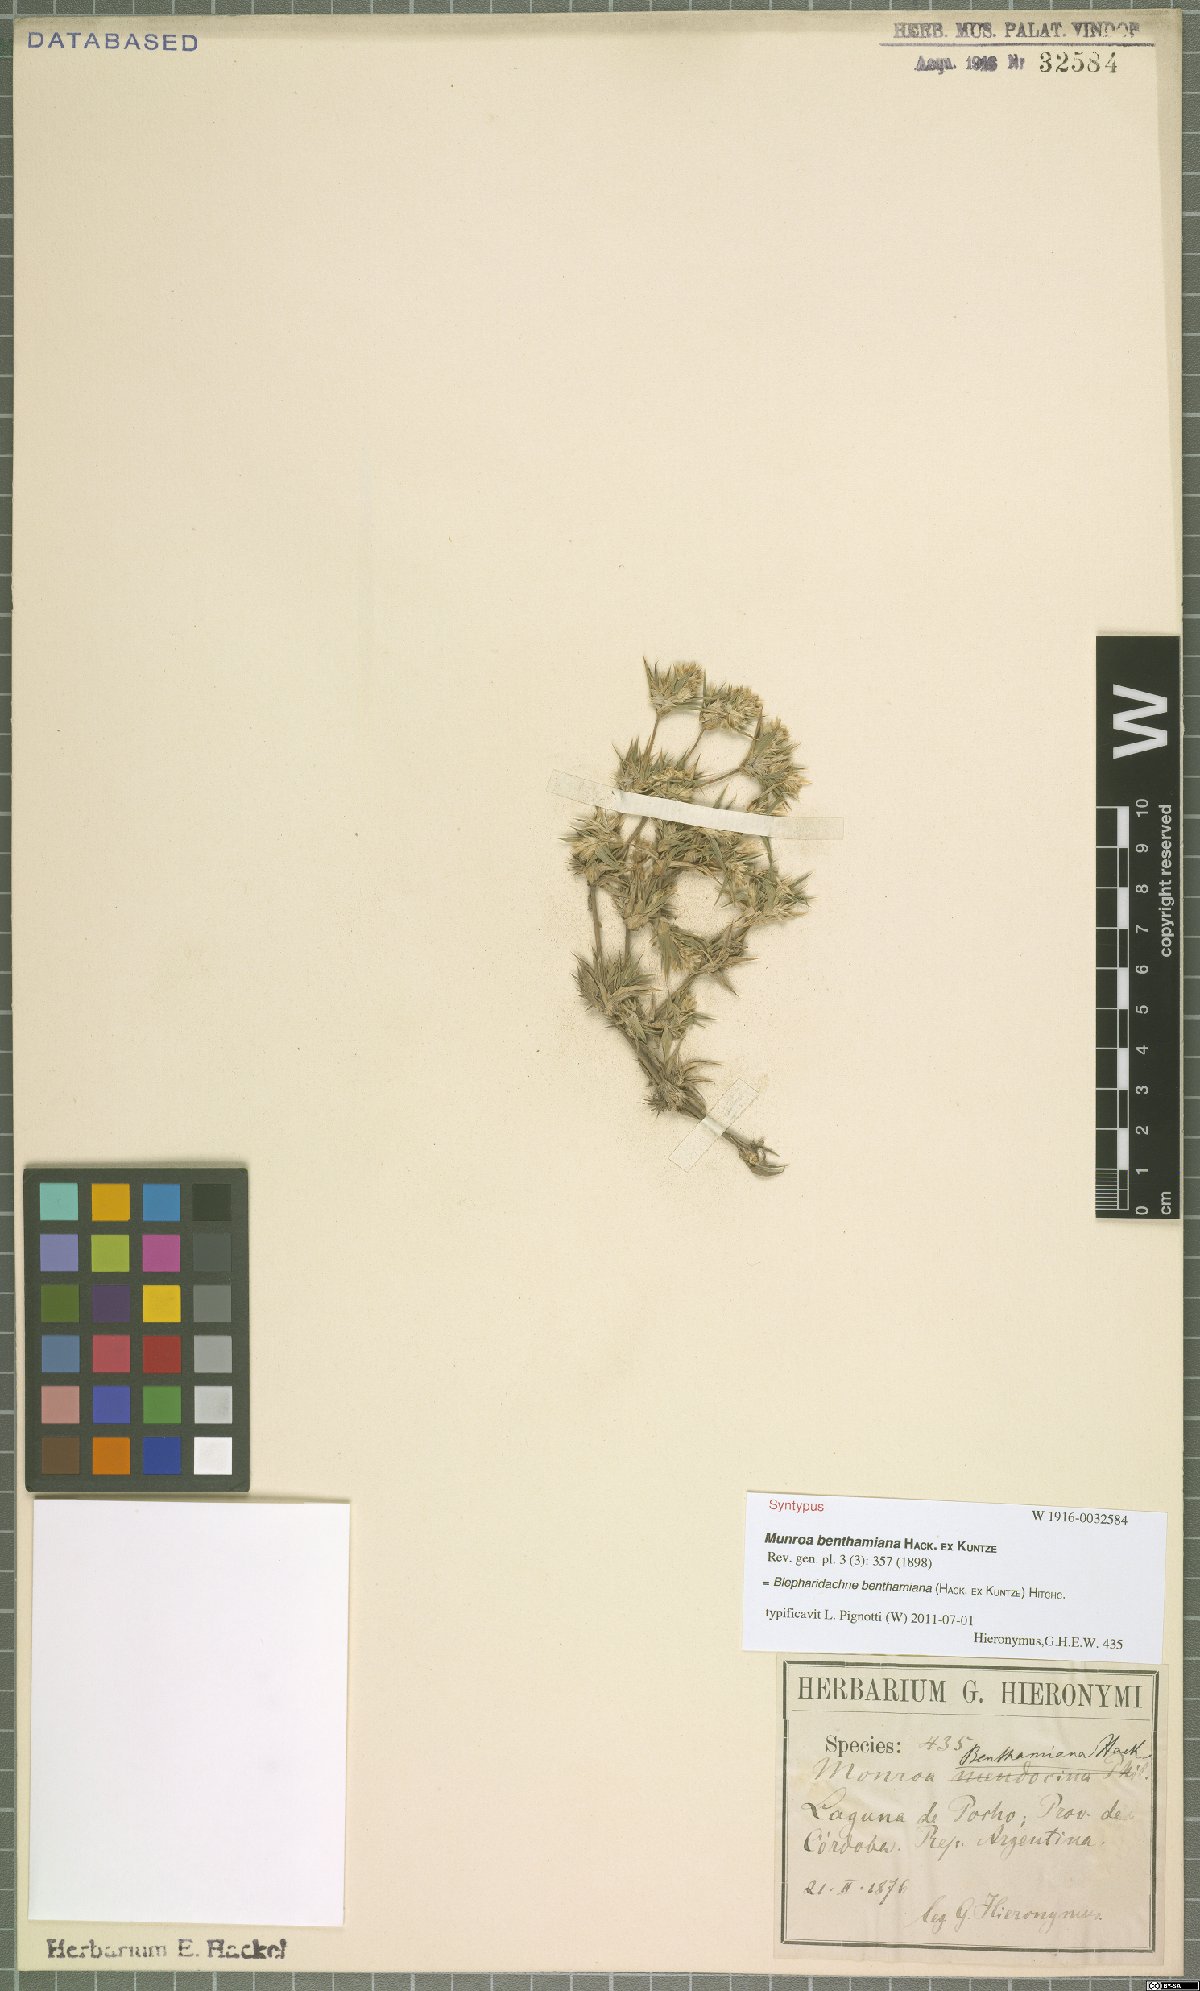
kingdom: Plantae
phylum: Tracheophyta
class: Liliopsida
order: Poales
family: Poaceae
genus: Blepharidachne
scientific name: Blepharidachne benthamiana
